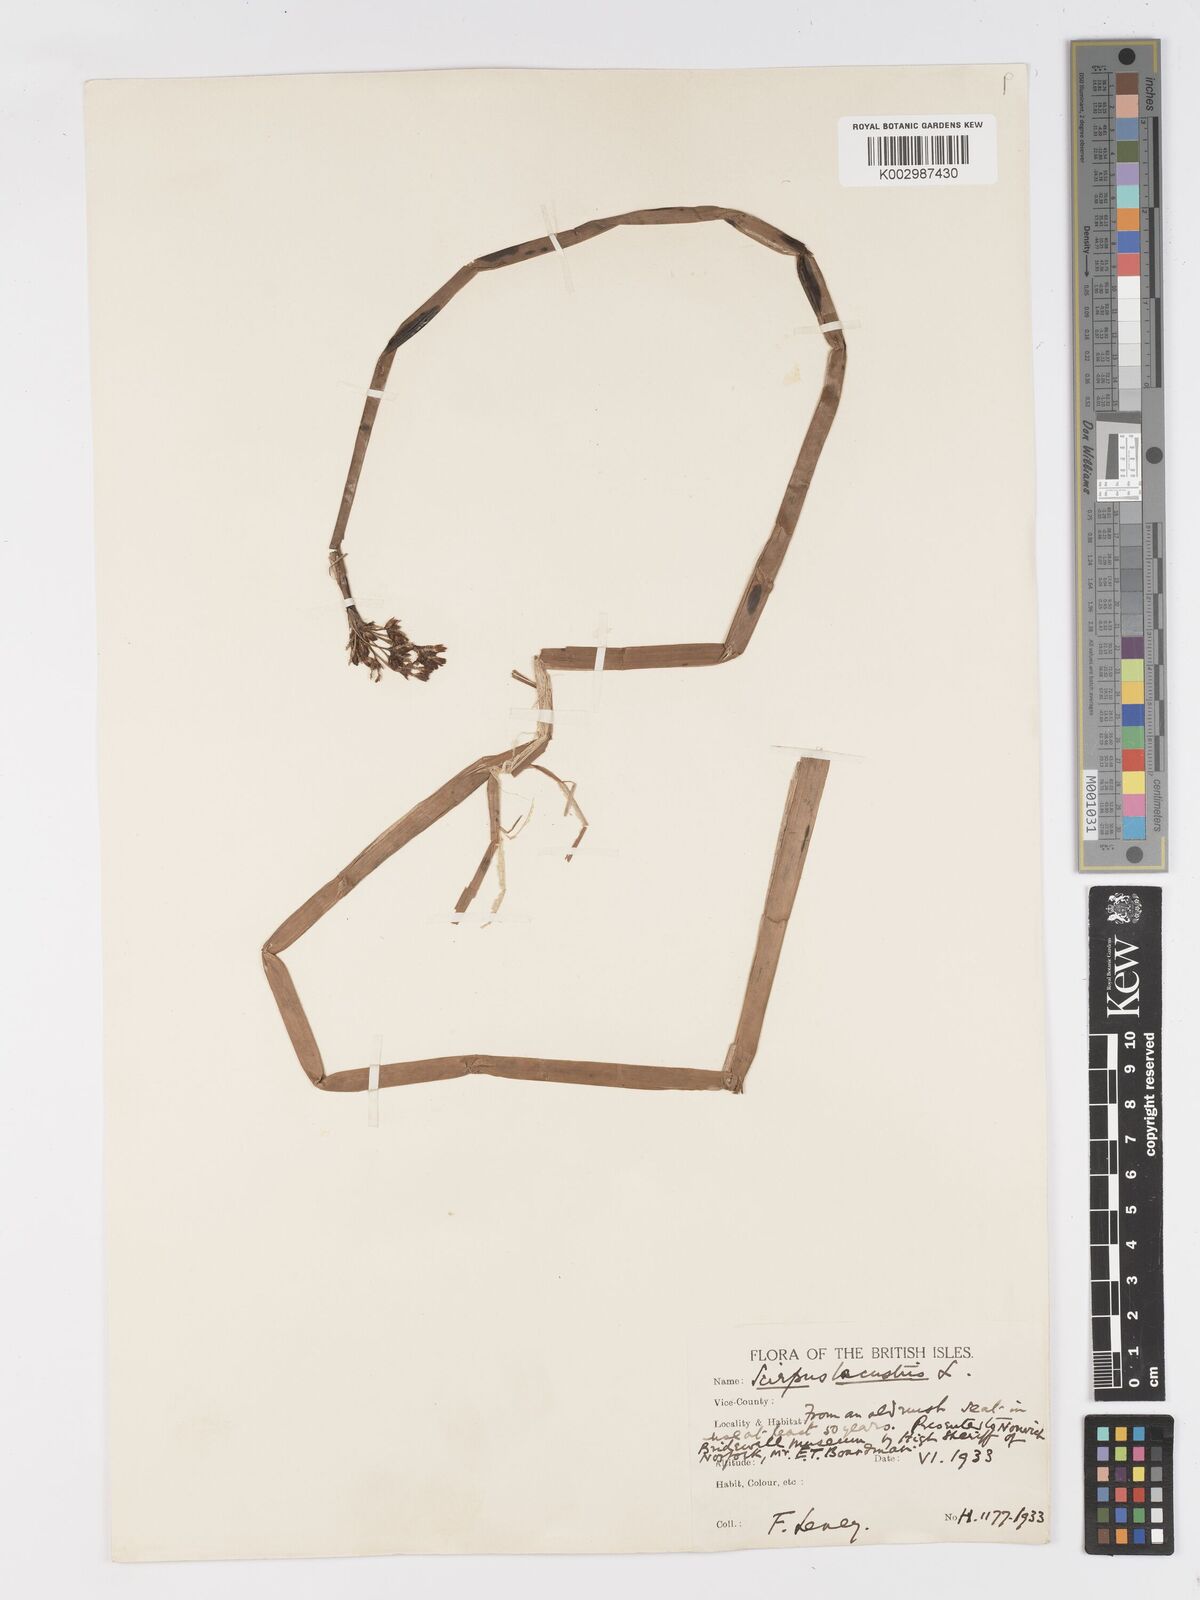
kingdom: Plantae
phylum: Tracheophyta
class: Liliopsida
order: Poales
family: Cyperaceae
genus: Schoenoplectus
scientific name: Schoenoplectus lacustris
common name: Common club-rush
